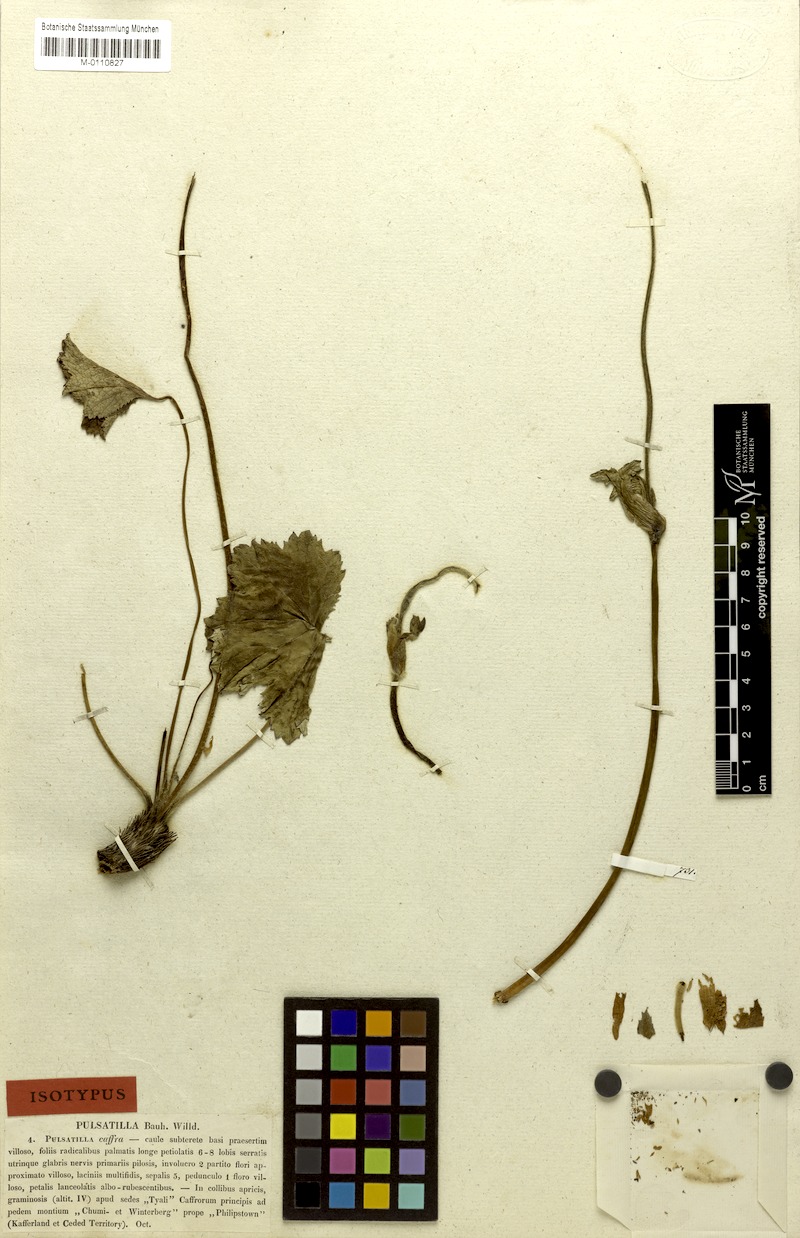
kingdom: Plantae
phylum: Tracheophyta
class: Magnoliopsida
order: Ranunculales
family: Ranunculaceae
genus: Knowltonia
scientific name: Knowltonia caffra
